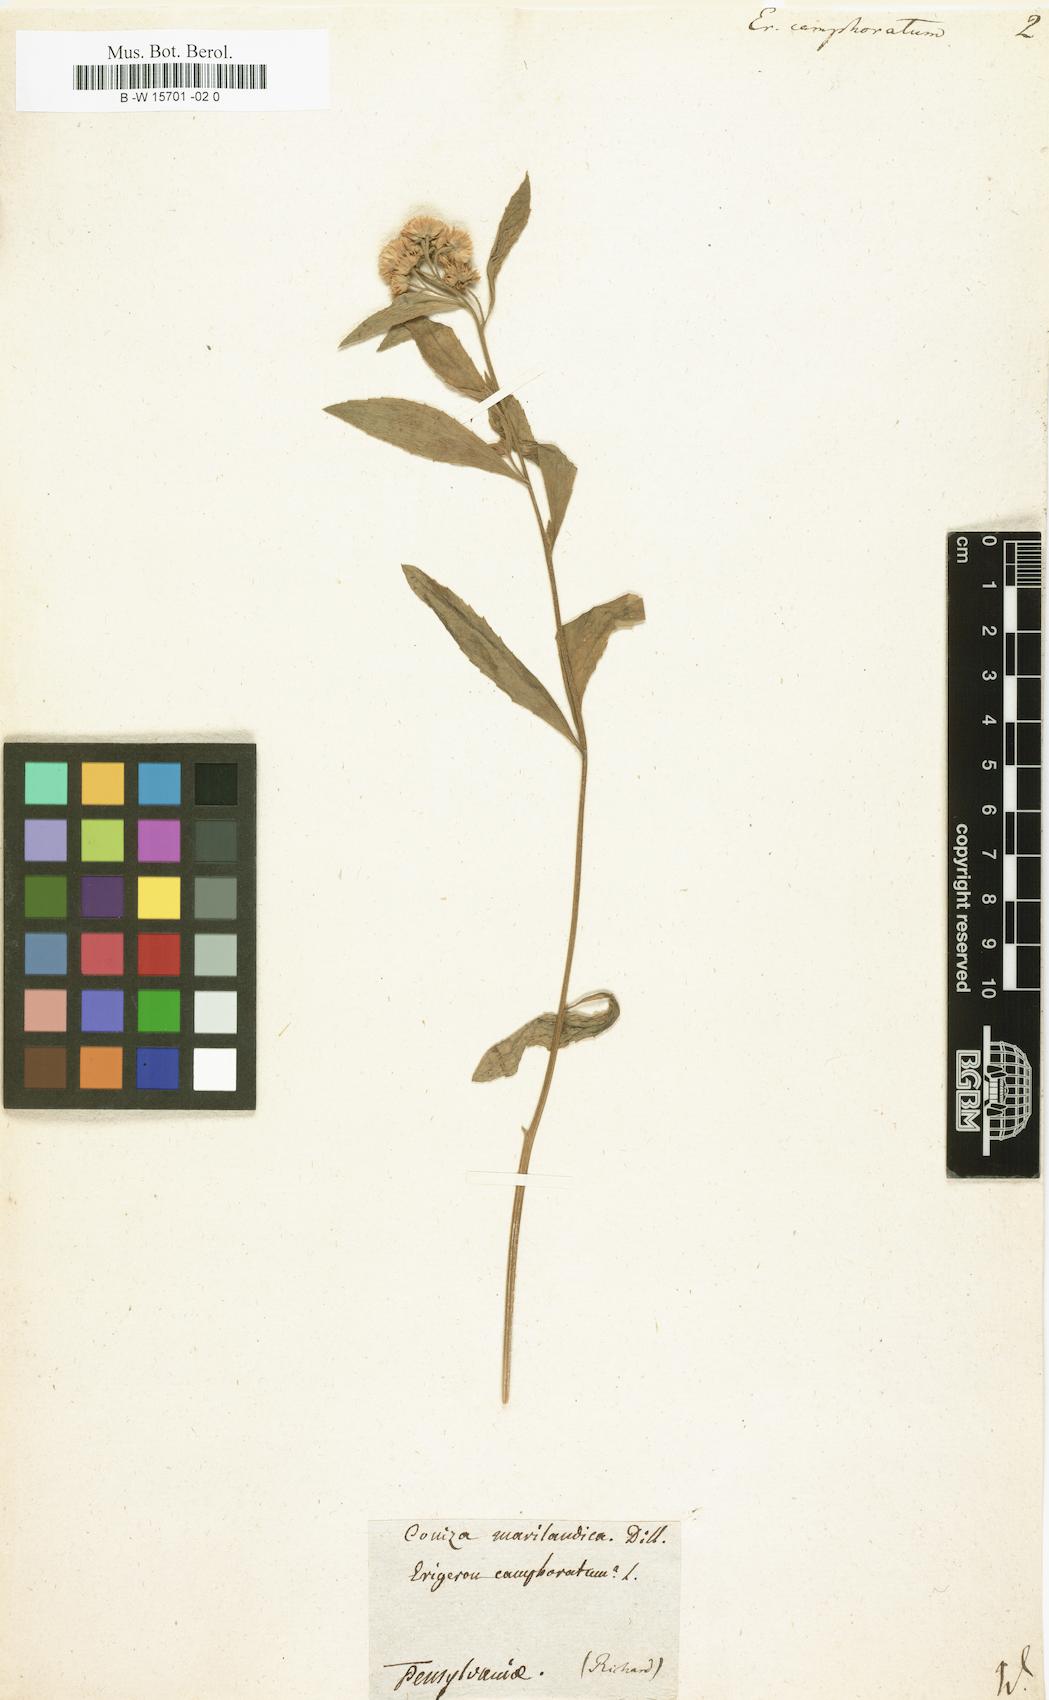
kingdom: Plantae
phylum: Tracheophyta
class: Magnoliopsida
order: Asterales
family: Asteraceae
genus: Pluchea
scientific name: Pluchea camphorata
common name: Camphor pluchea
